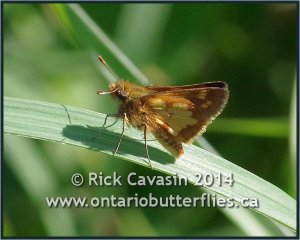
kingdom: Animalia
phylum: Arthropoda
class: Insecta
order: Lepidoptera
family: Hesperiidae
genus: Polites
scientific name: Polites coras
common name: Peck's Skipper
